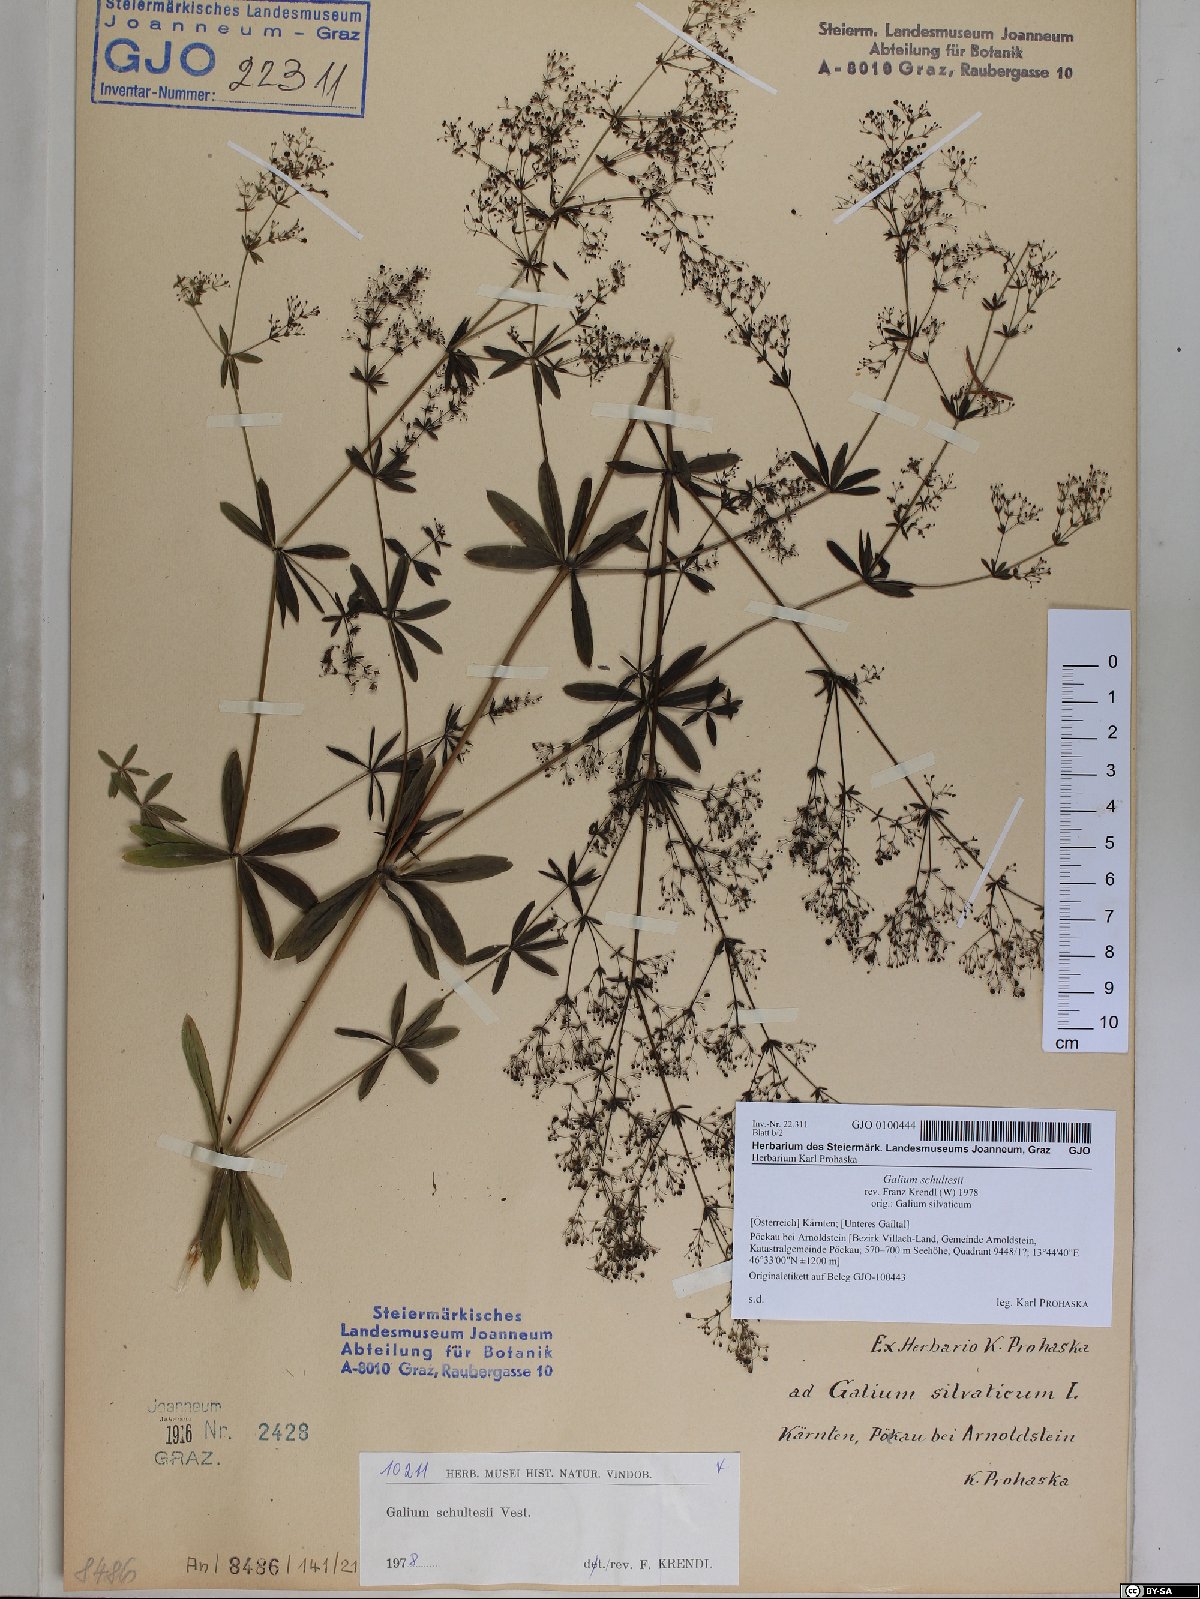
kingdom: Plantae
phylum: Tracheophyta
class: Magnoliopsida
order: Gentianales
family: Rubiaceae
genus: Galium
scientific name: Galium intermedium
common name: Bedstraw
